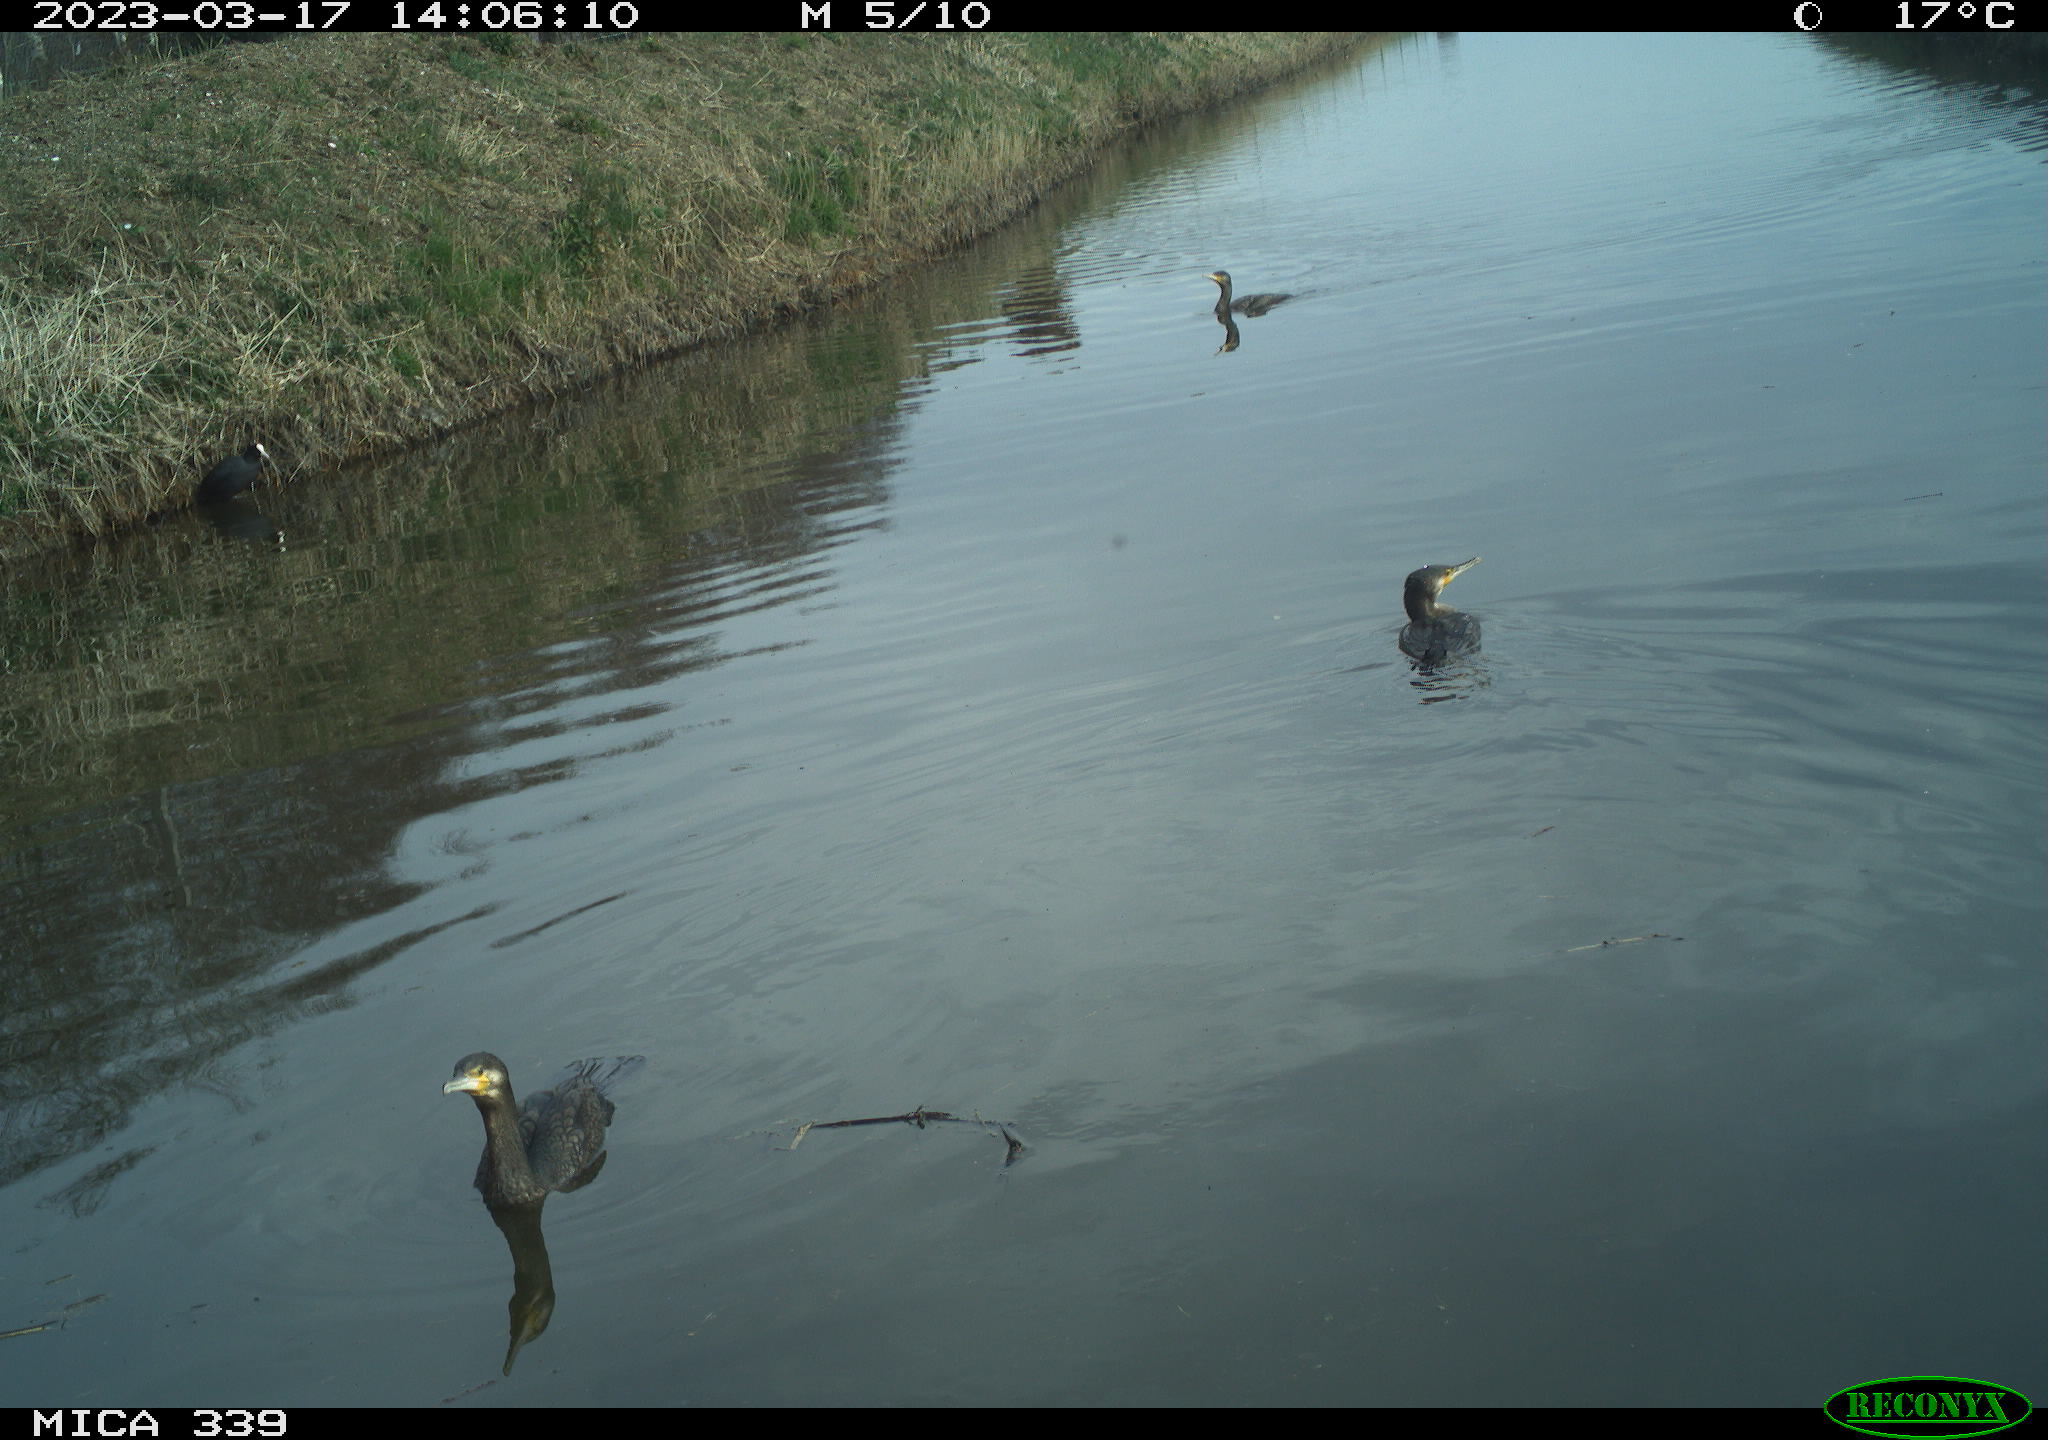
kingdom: Animalia
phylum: Chordata
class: Aves
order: Suliformes
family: Phalacrocoracidae
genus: Phalacrocorax
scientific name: Phalacrocorax carbo
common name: Great cormorant
